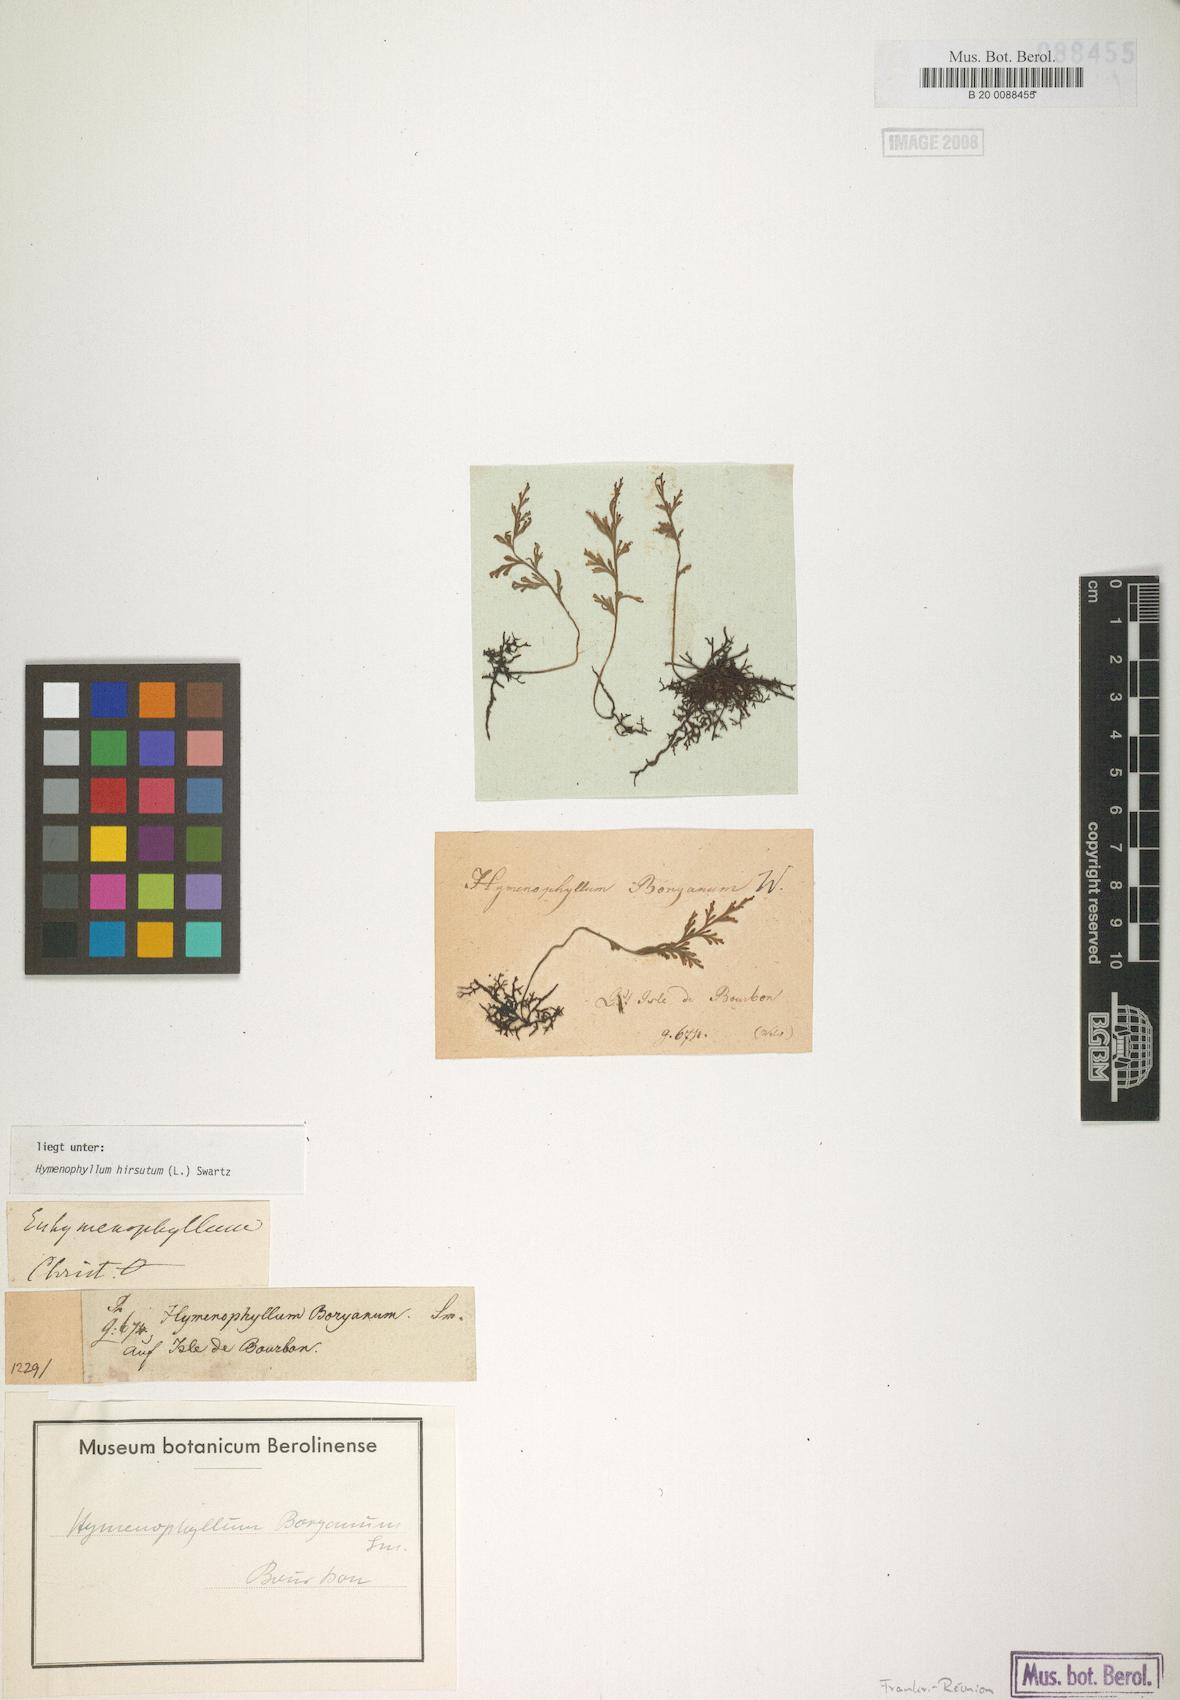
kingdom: Plantae
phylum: Tracheophyta
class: Polypodiopsida
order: Hymenophyllales
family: Hymenophyllaceae
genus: Hymenophyllum
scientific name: Hymenophyllum hirsutum
